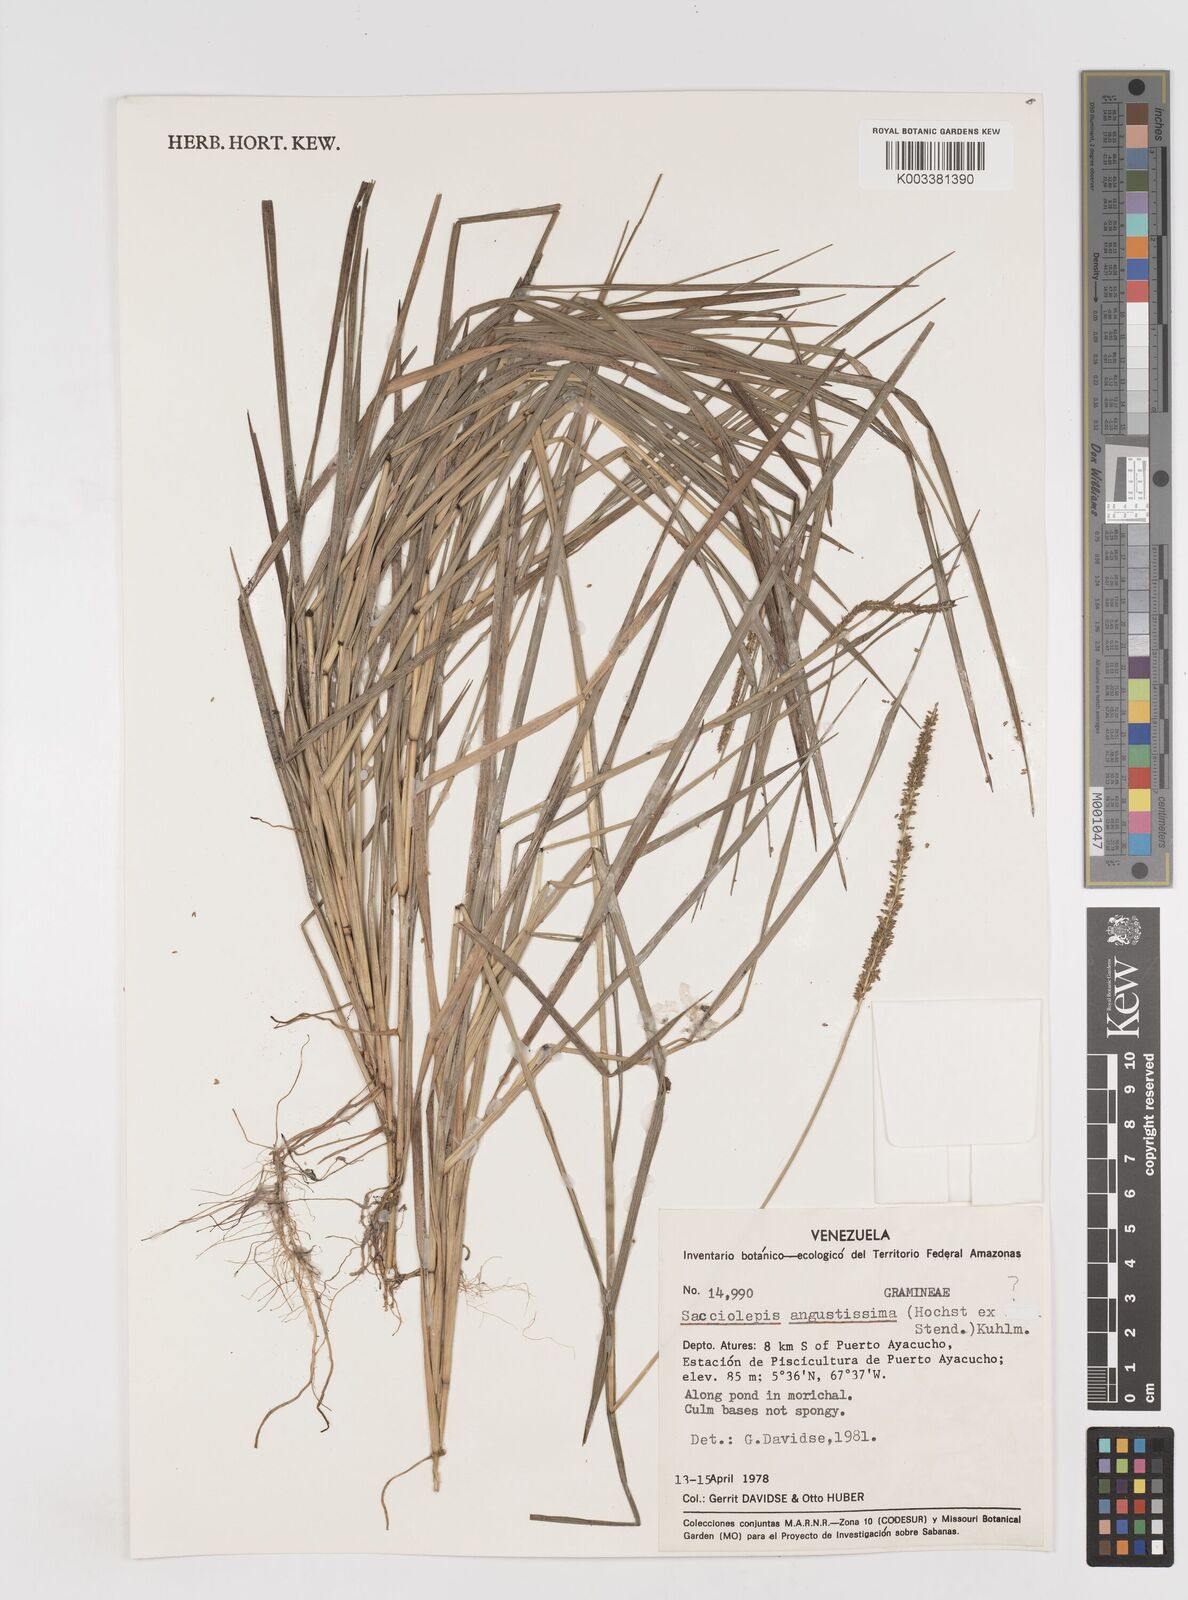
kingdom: Plantae
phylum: Tracheophyta
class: Liliopsida
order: Poales
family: Poaceae
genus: Sacciolepis
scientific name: Sacciolepis
